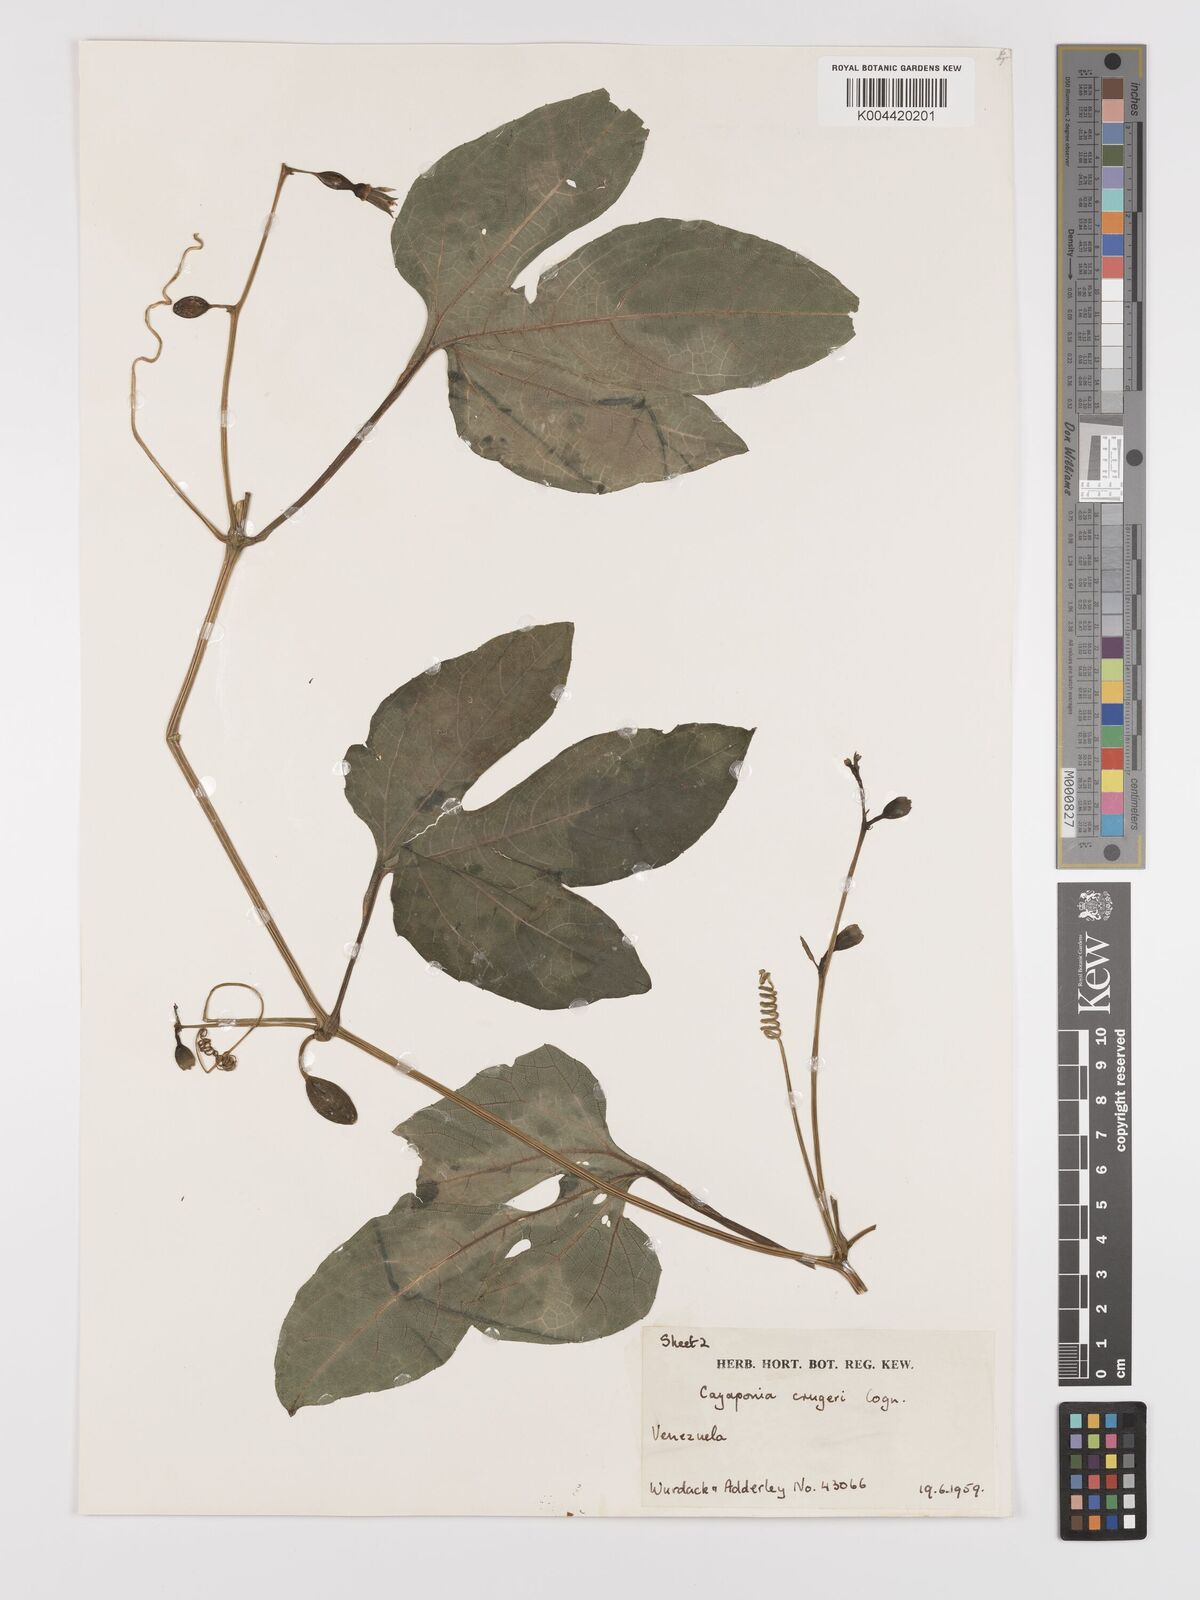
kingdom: Plantae
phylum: Tracheophyta
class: Magnoliopsida
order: Cucurbitales
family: Cucurbitaceae
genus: Cayaponia
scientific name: Cayaponia cruegeri
